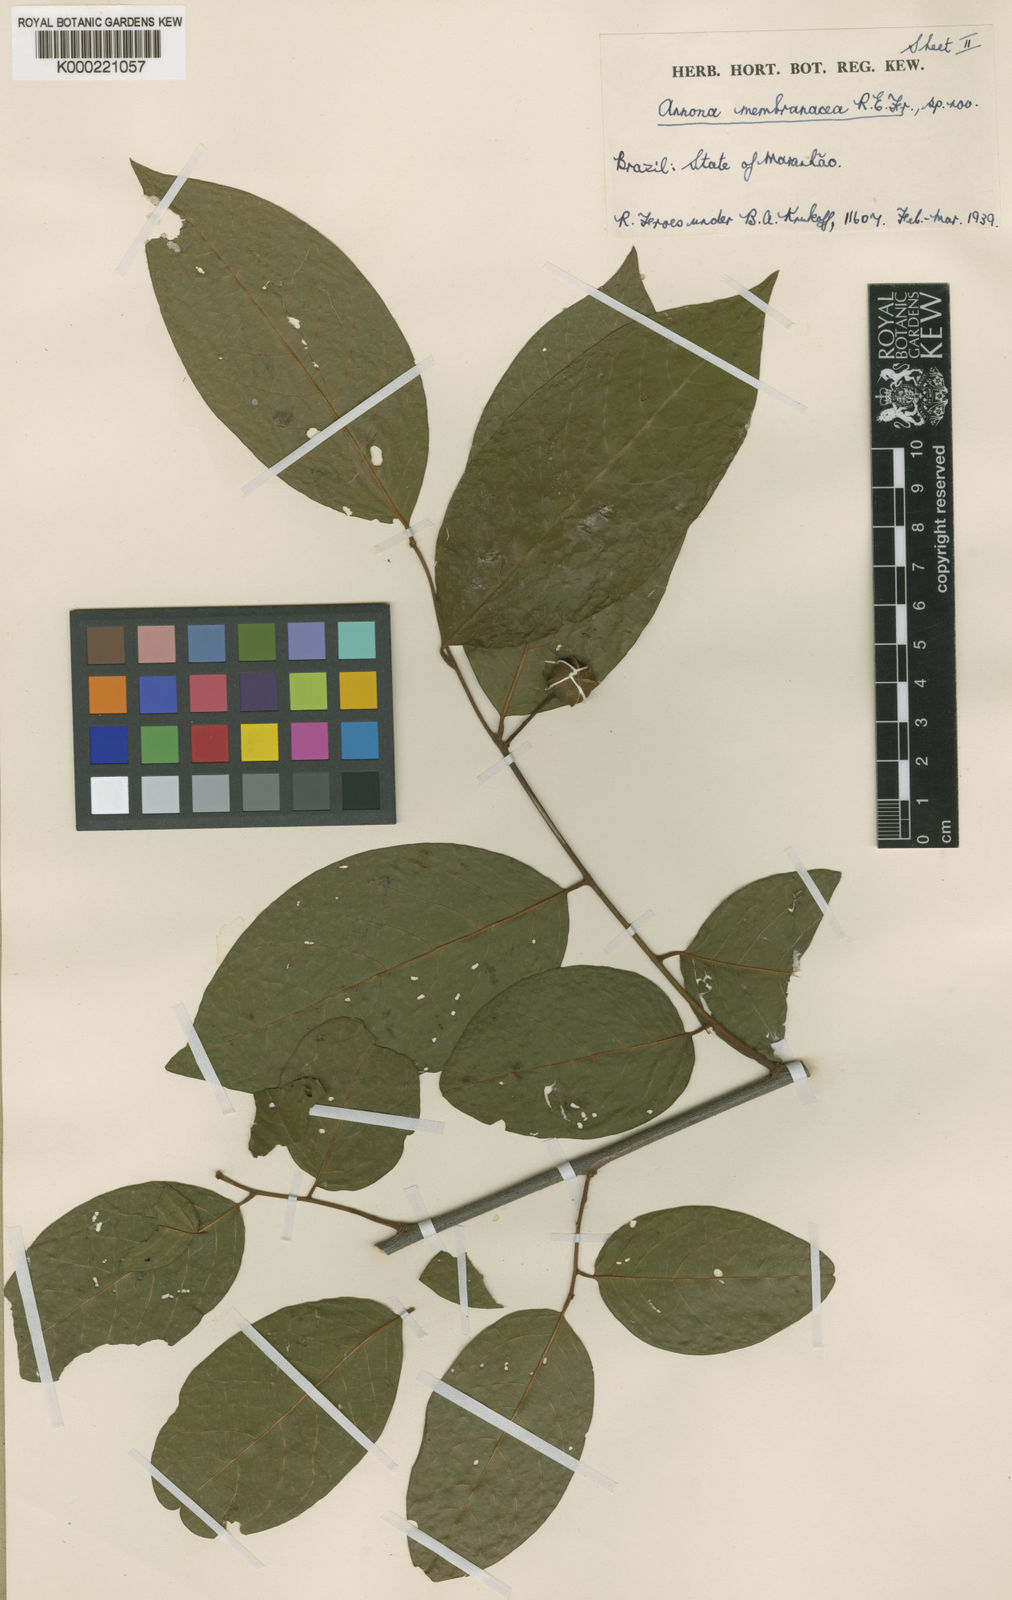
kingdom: Plantae
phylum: Tracheophyta
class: Magnoliopsida
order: Magnoliales
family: Annonaceae
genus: Annona
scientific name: Annona membranacea
